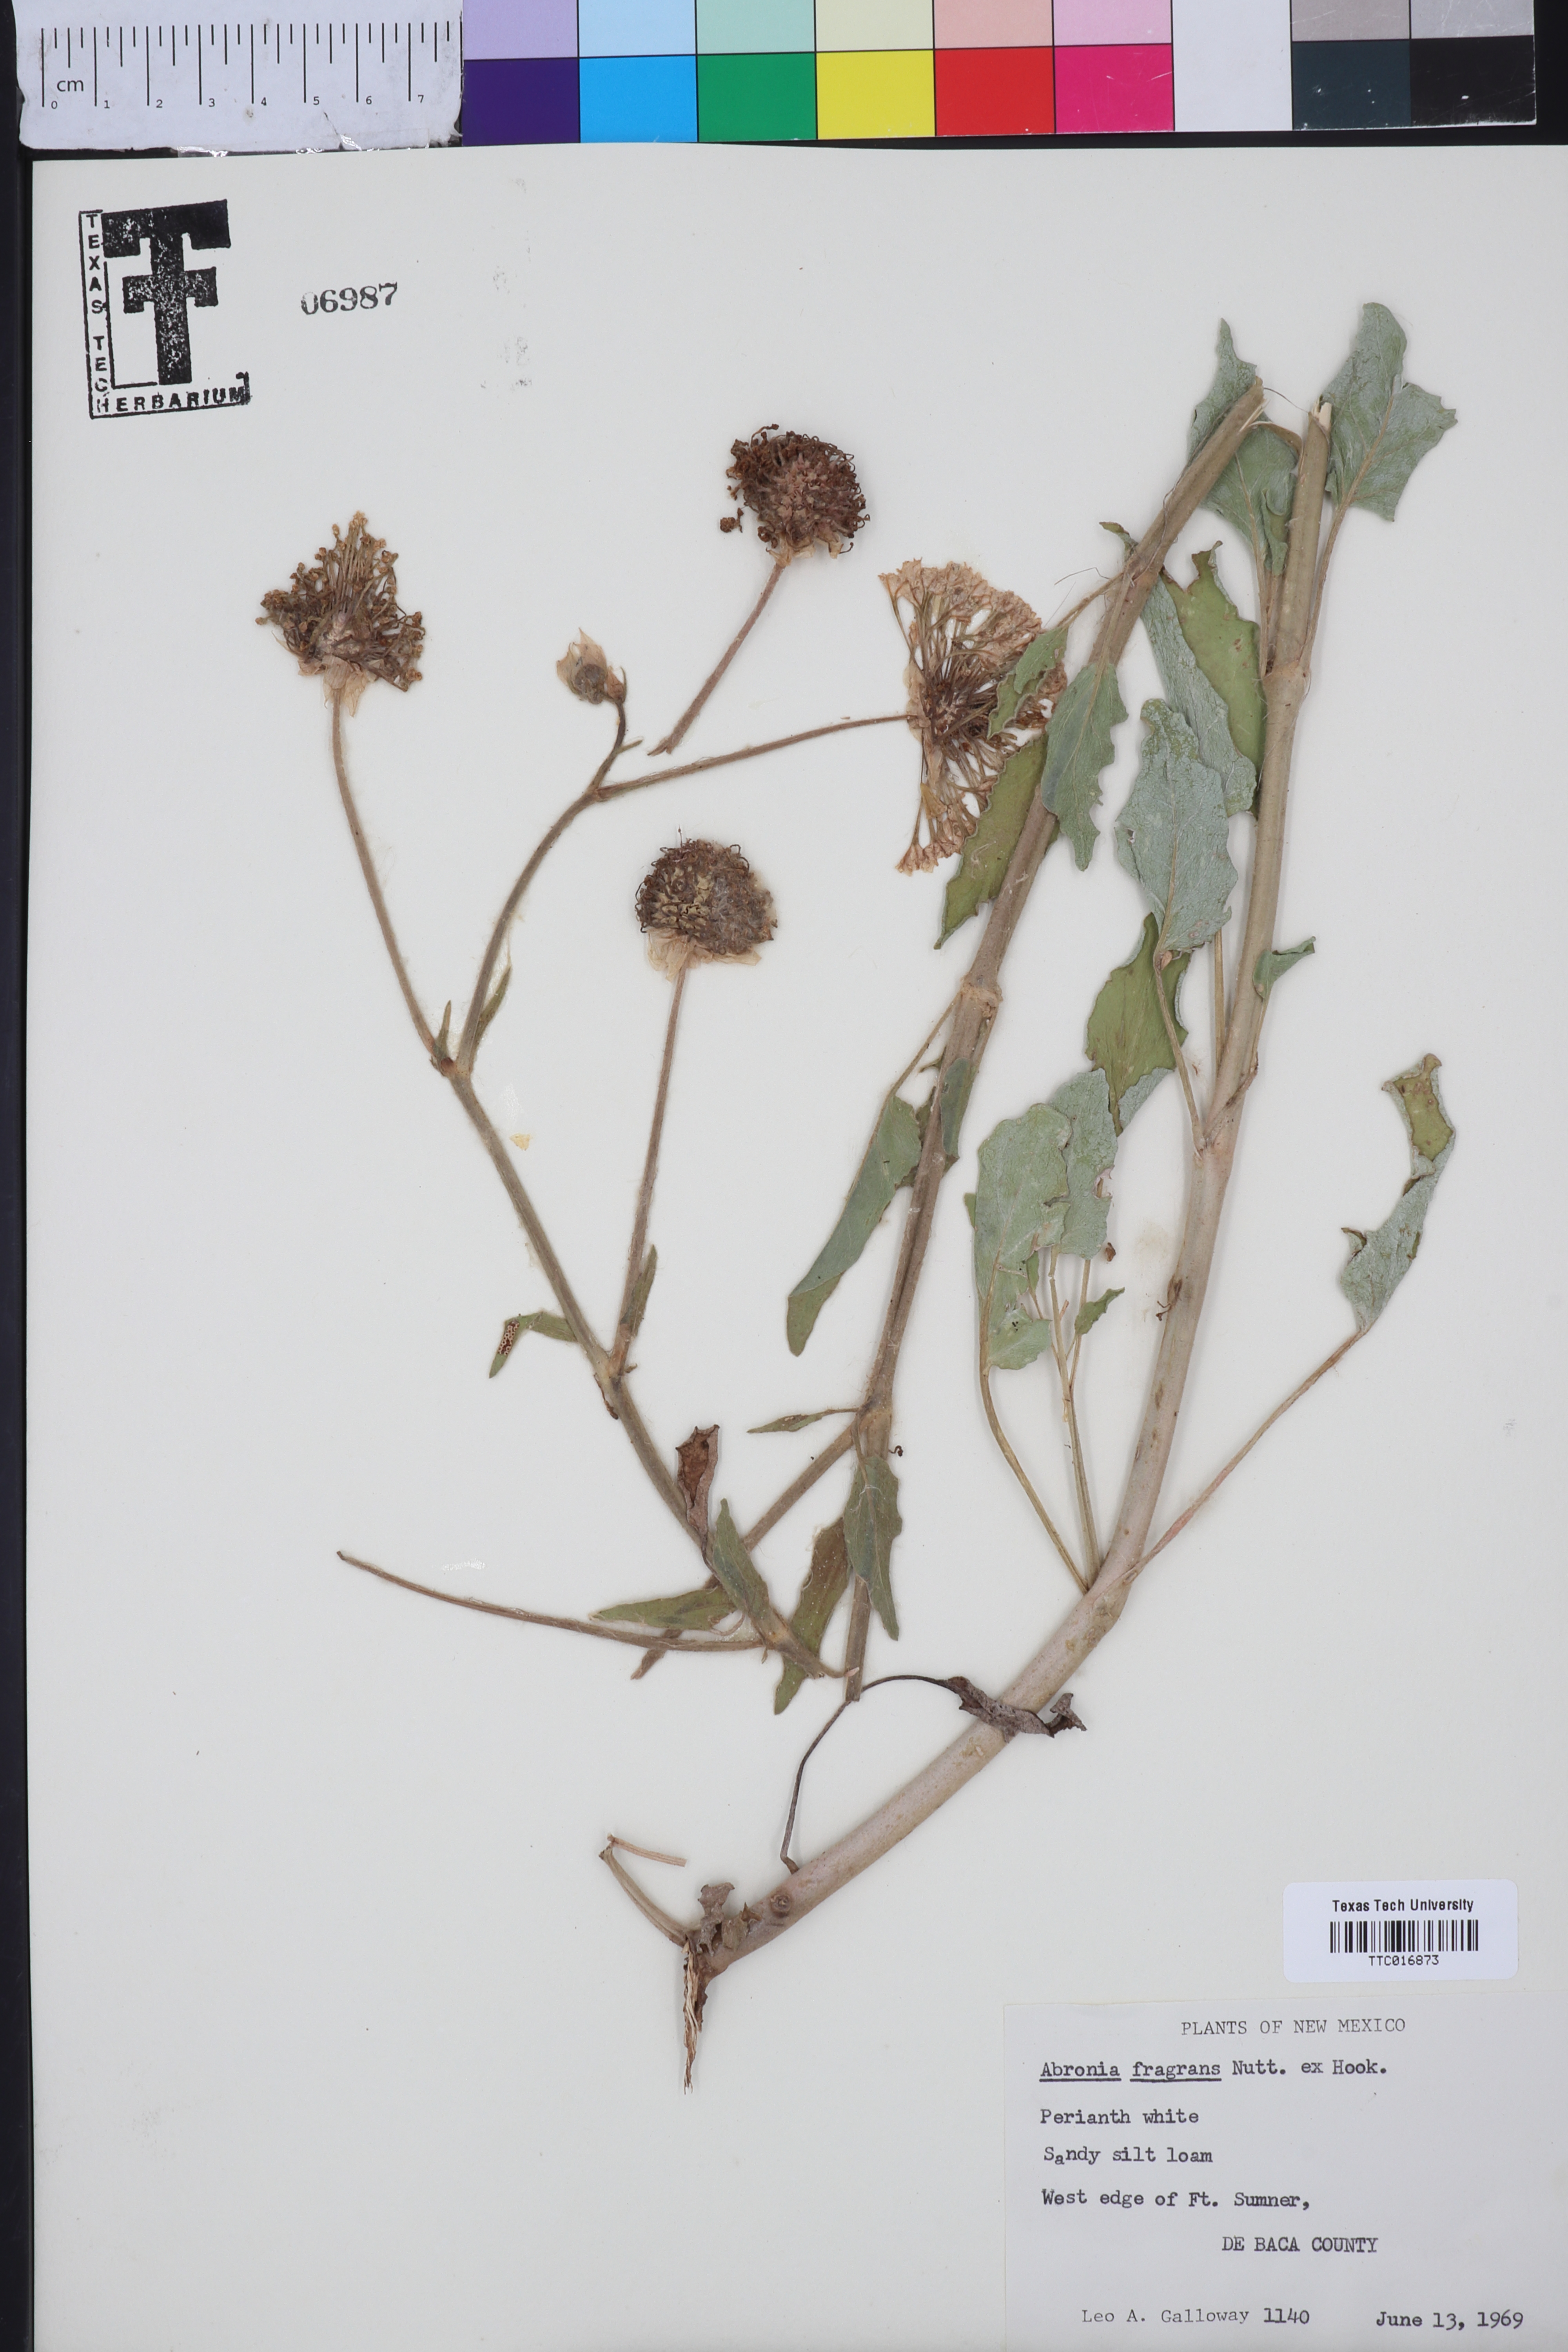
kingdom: Plantae
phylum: Tracheophyta
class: Magnoliopsida
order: Caryophyllales
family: Nyctaginaceae
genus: Abronia
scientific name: Abronia fragrans
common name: Fragrant sand-verbena
